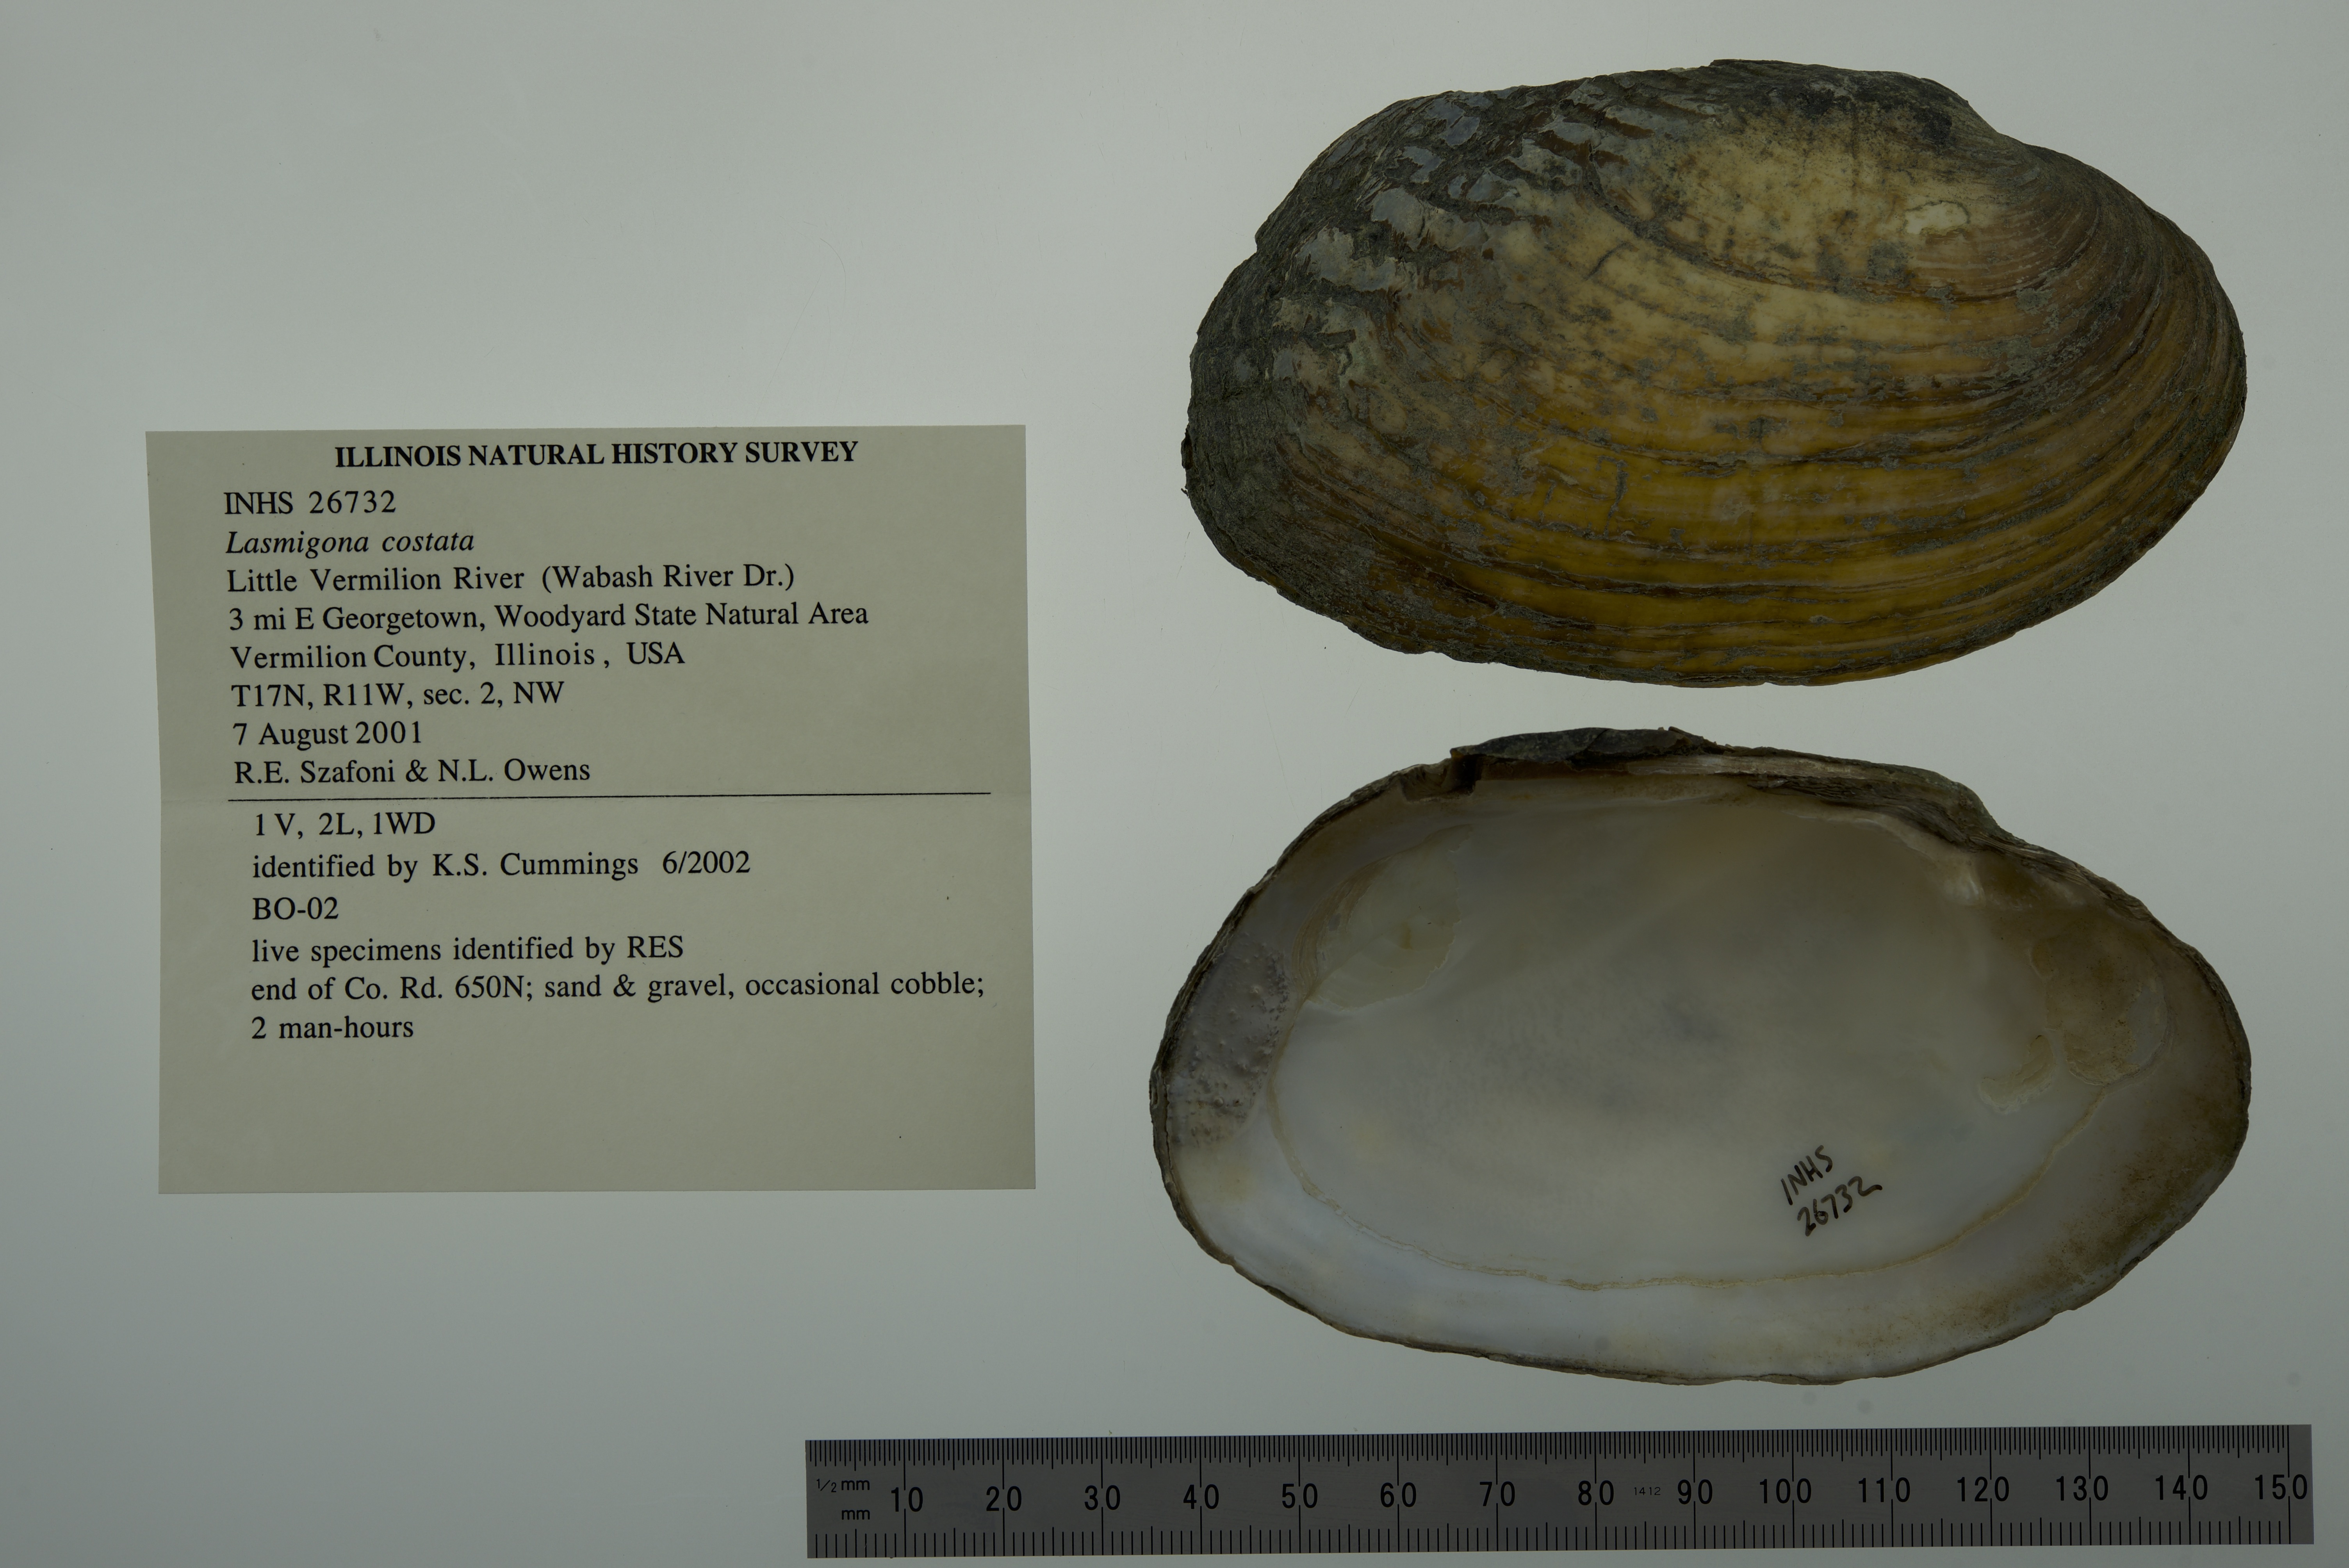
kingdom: Animalia
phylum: Mollusca
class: Bivalvia
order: Unionida
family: Unionidae
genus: Lasmigona
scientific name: Lasmigona costata
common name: Flutedshell
